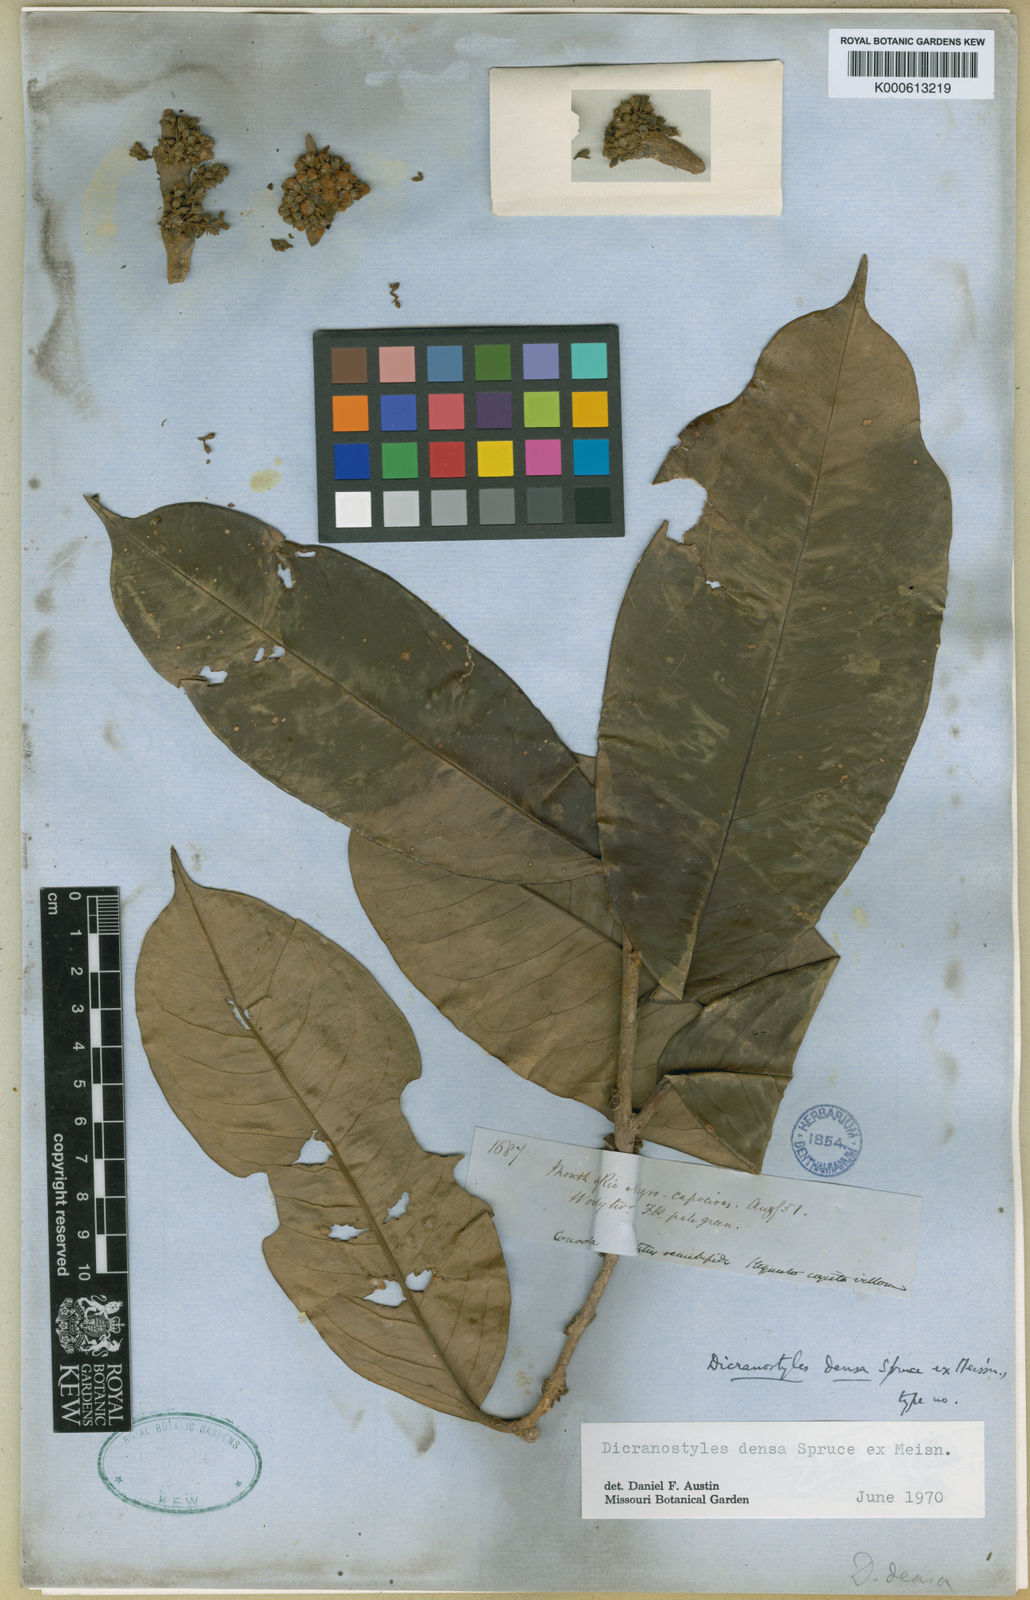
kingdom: Plantae
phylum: Tracheophyta
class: Magnoliopsida
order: Solanales
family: Convolvulaceae
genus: Dicranostyles
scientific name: Dicranostyles densa
